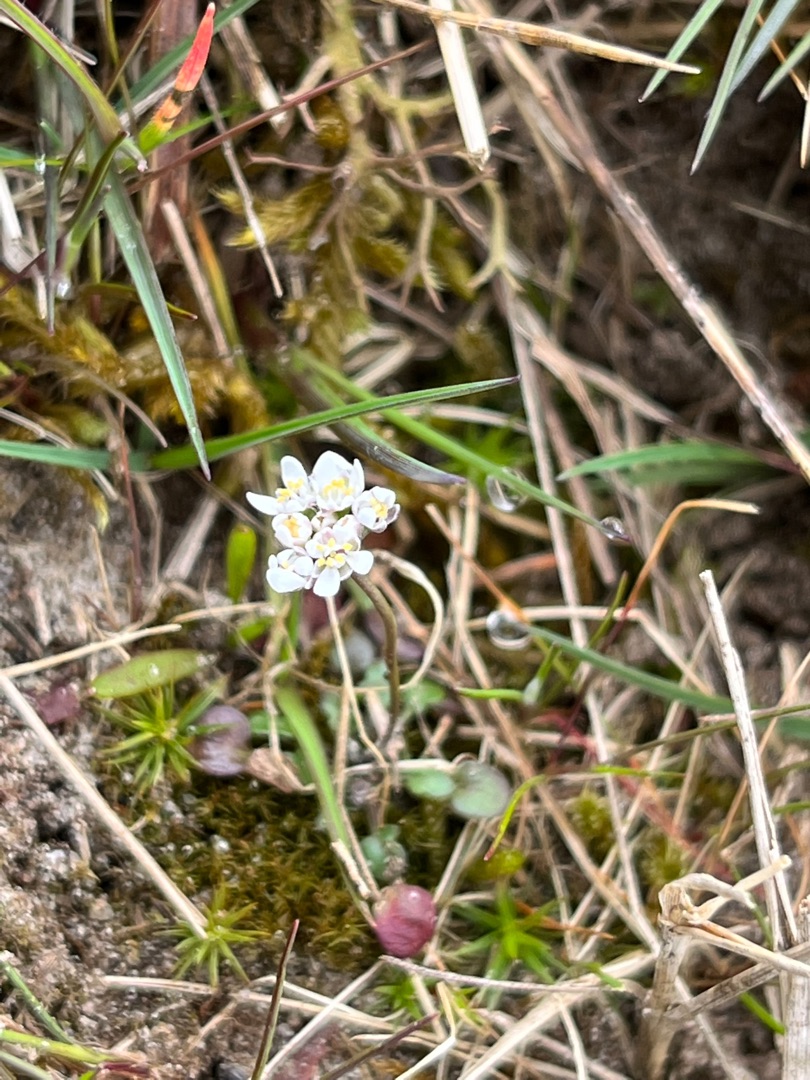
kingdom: Plantae
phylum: Tracheophyta
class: Magnoliopsida
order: Brassicales
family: Brassicaceae
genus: Teesdalia
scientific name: Teesdalia nudicaulis
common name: Flipkrave
